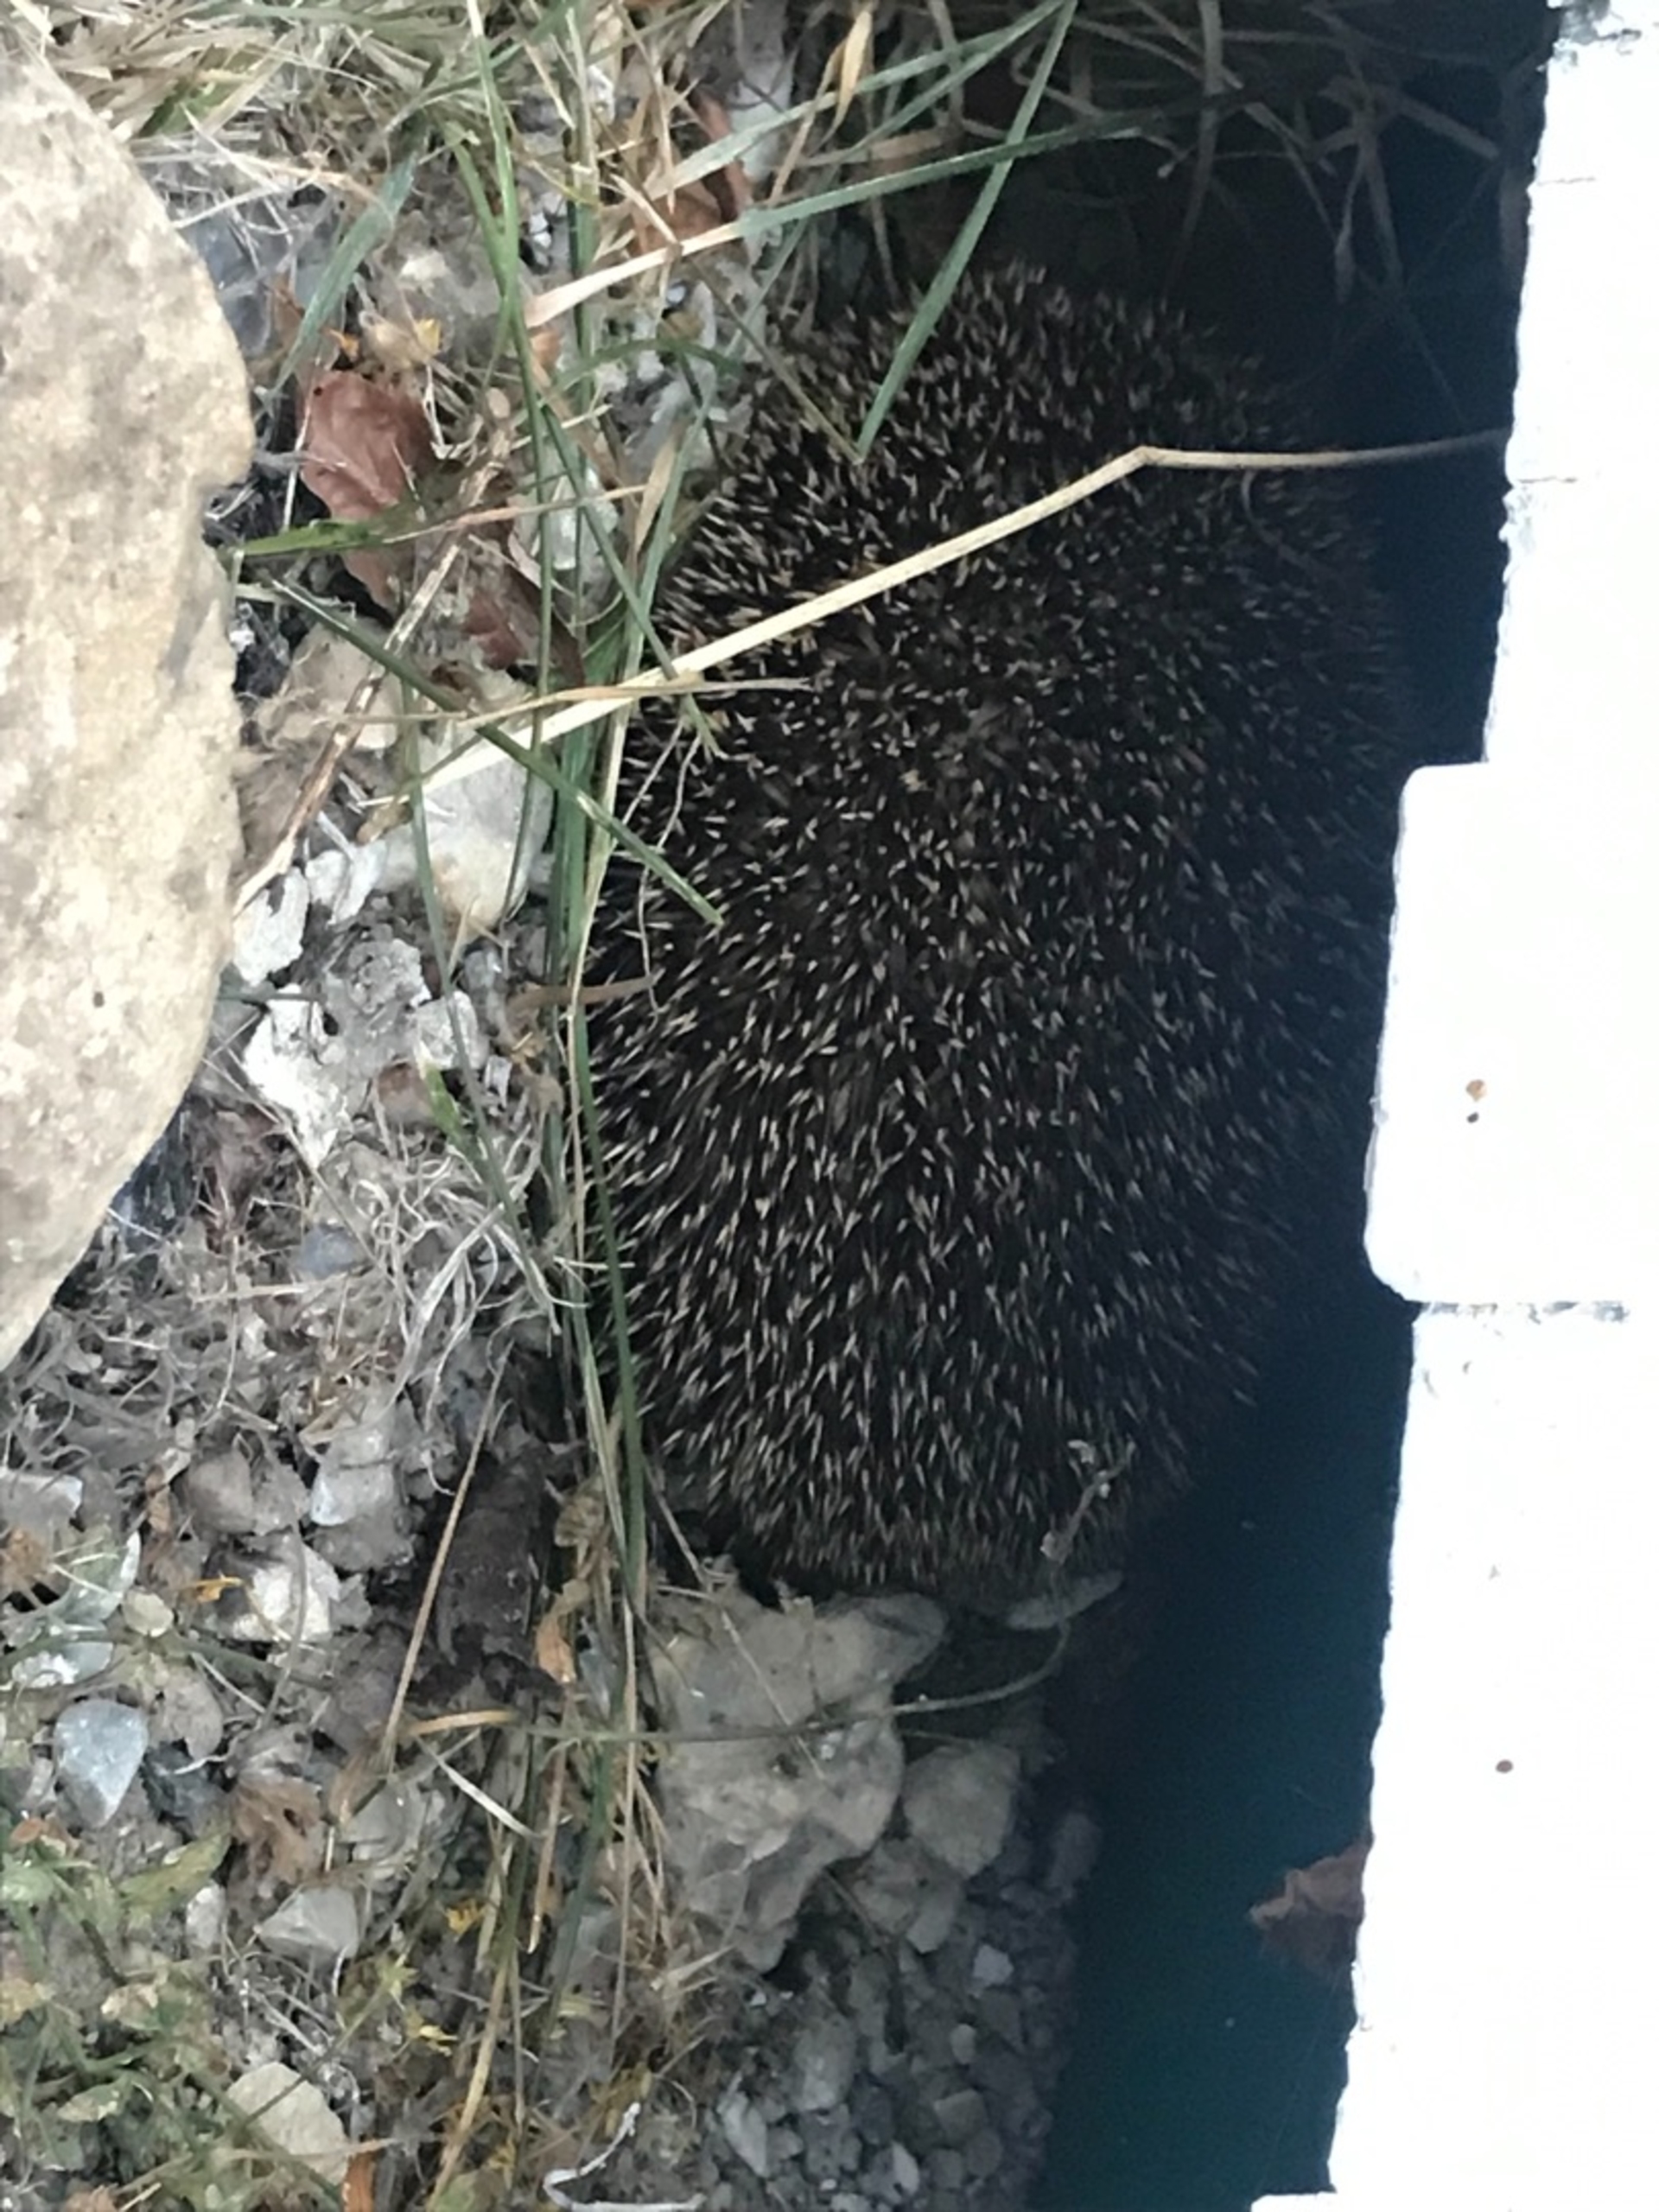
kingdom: Animalia
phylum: Chordata
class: Mammalia
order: Erinaceomorpha
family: Erinaceidae
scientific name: Erinaceidae
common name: Pindsvin
